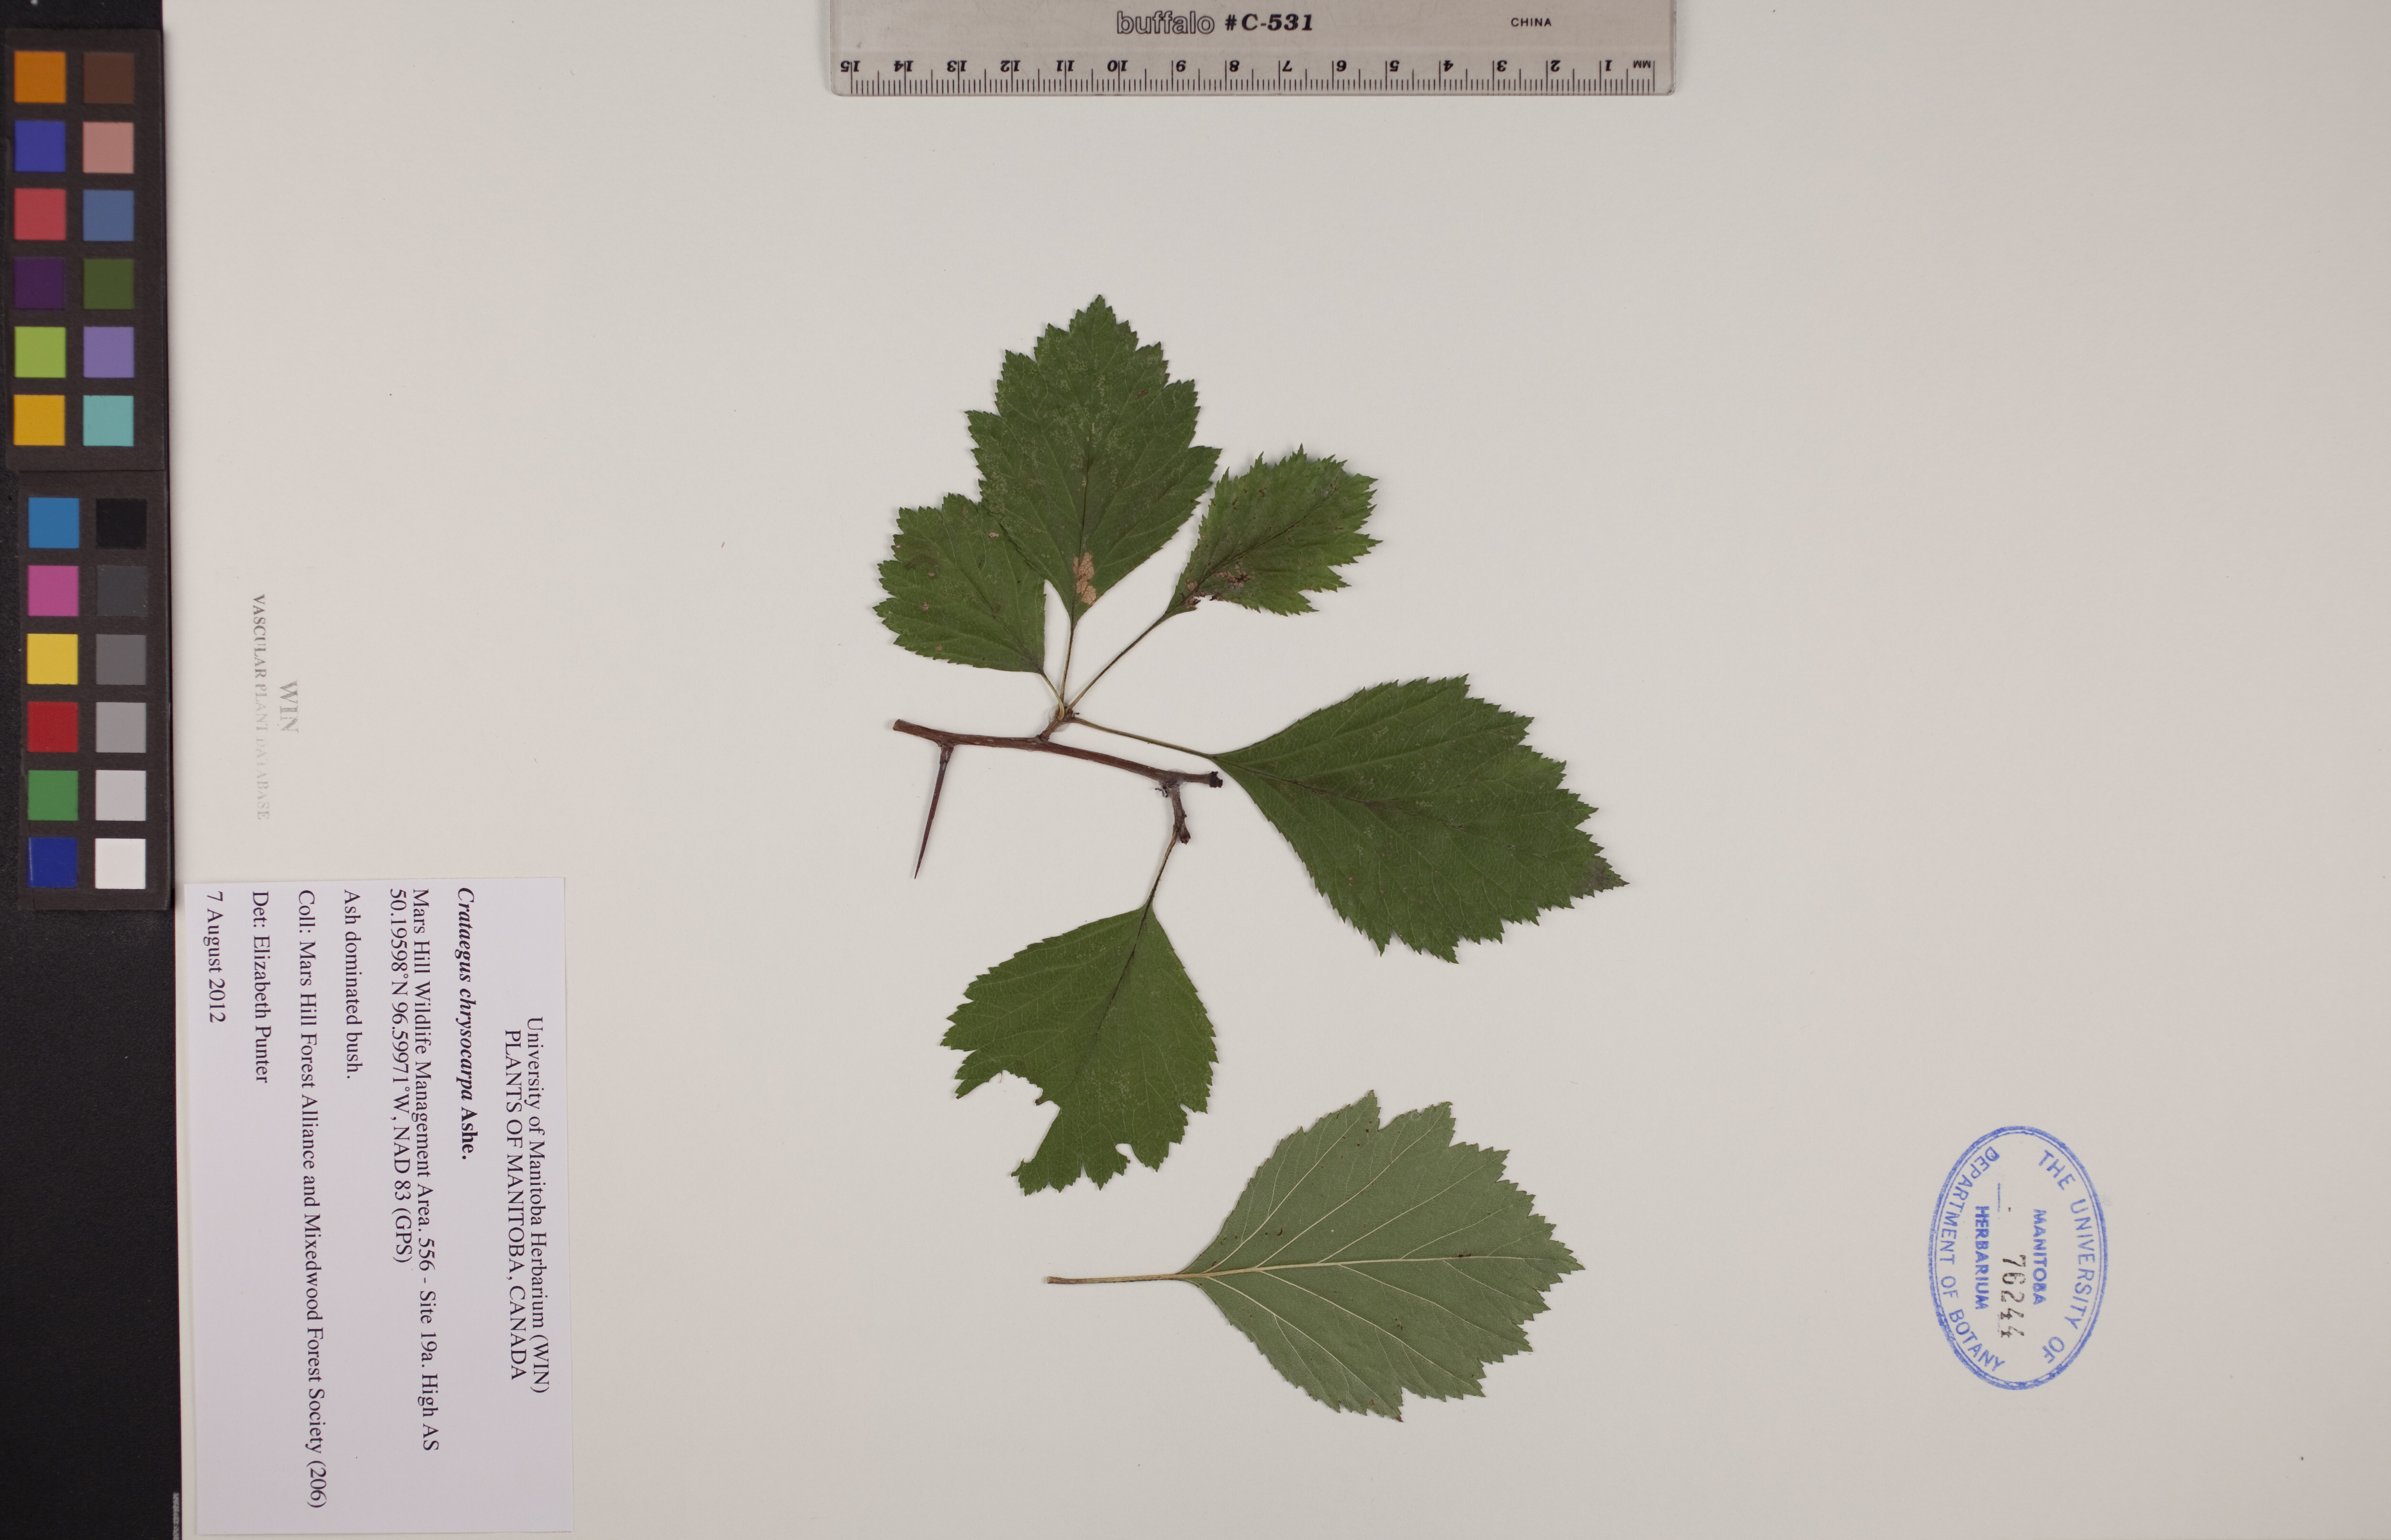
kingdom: Plantae
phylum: Tracheophyta
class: Magnoliopsida
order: Rosales
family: Rosaceae
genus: Crataegus
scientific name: Crataegus chrysocarpa
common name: Fire-berry hawthorn
